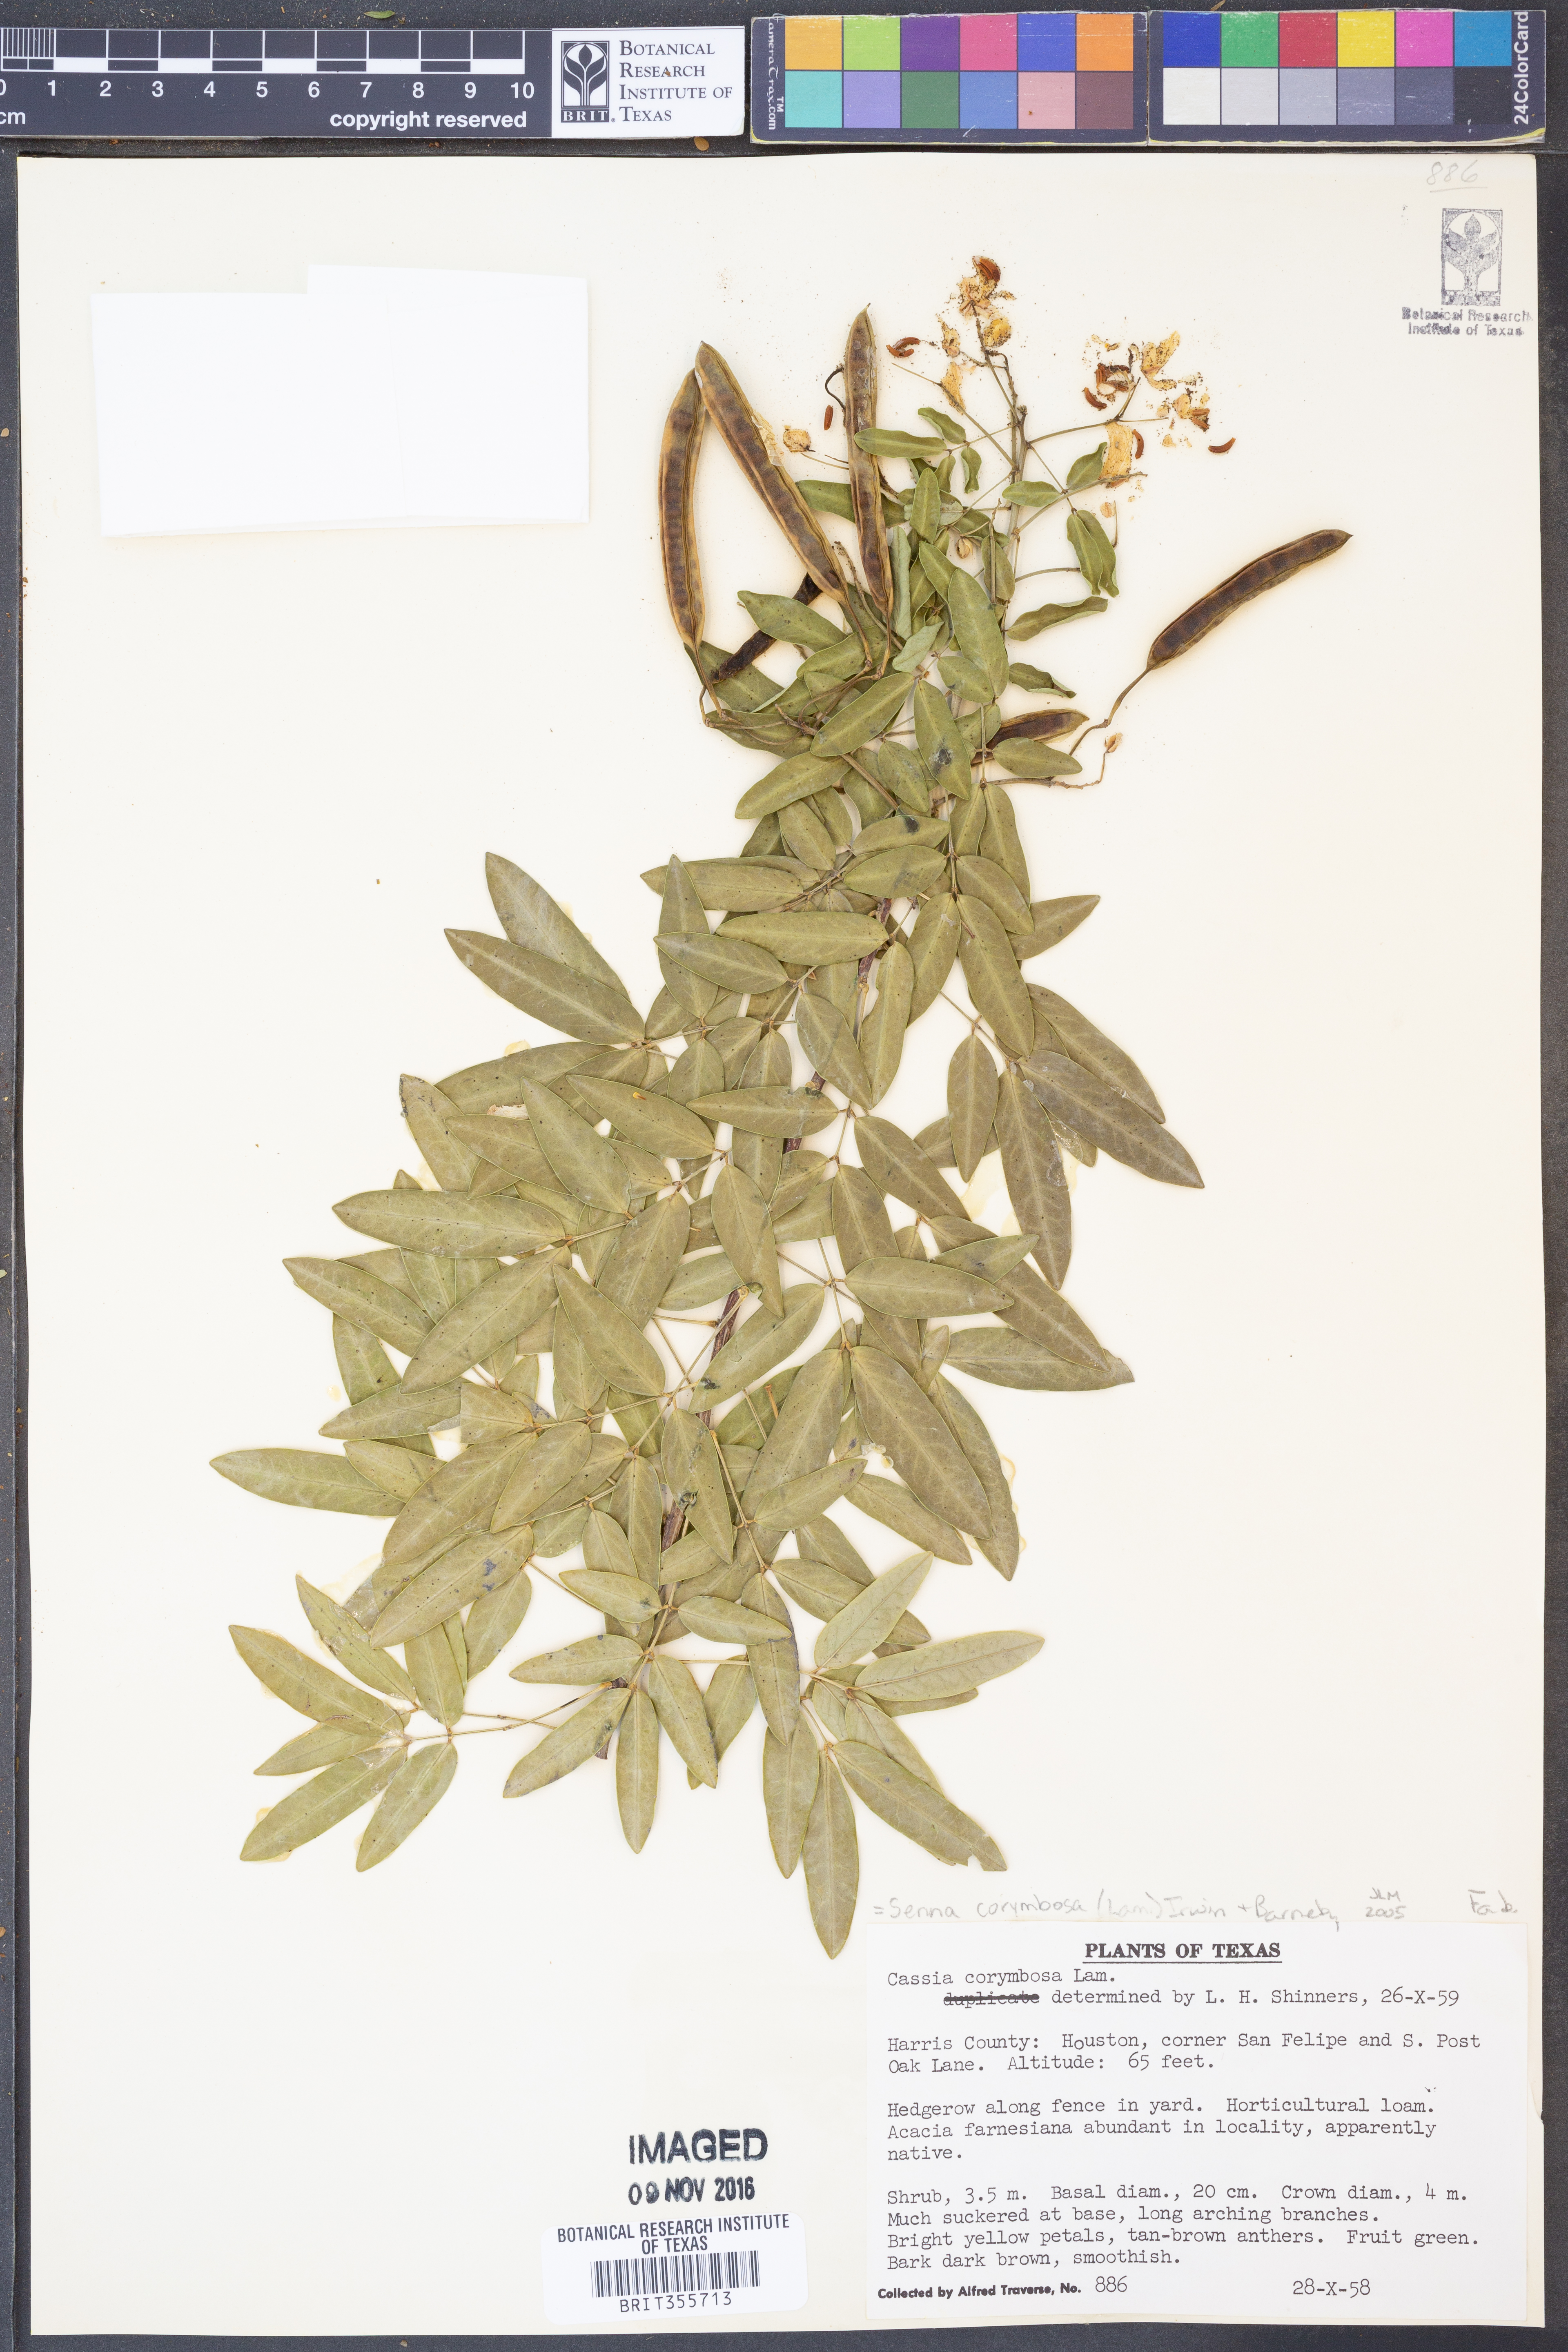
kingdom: Plantae
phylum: Tracheophyta
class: Magnoliopsida
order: Fabales
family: Fabaceae
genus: Senna
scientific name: Senna corymbosa
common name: Argentine senna
